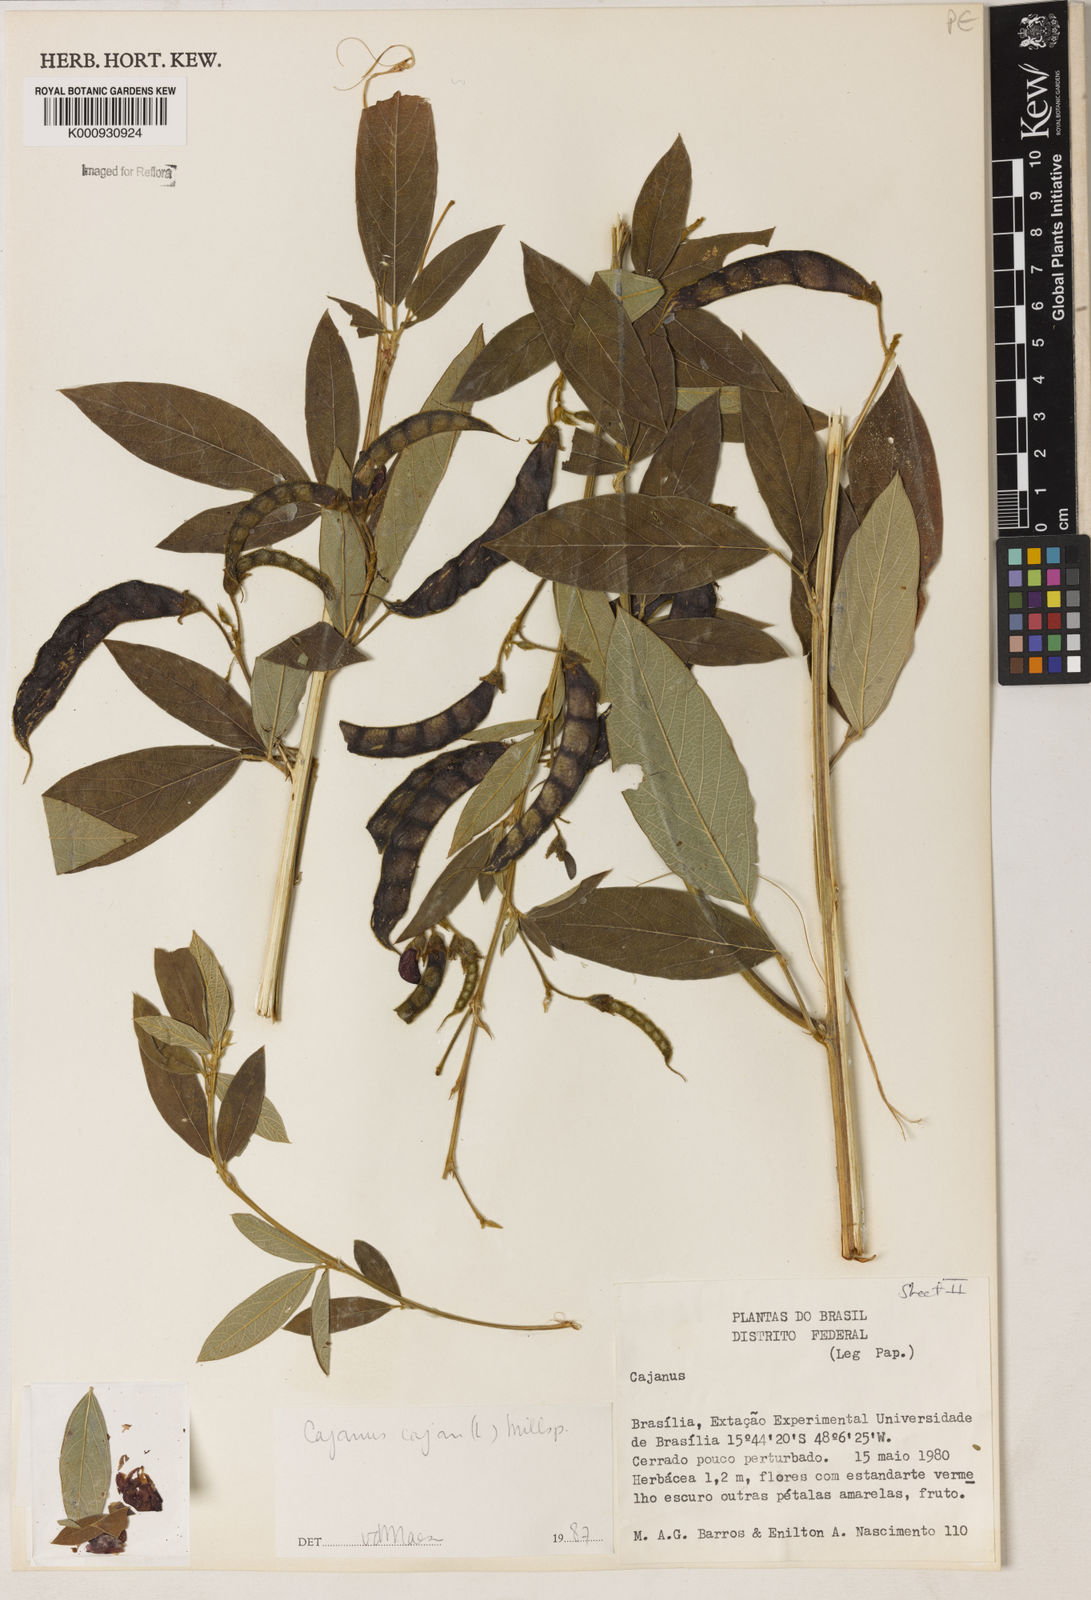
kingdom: Plantae
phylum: Tracheophyta
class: Magnoliopsida
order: Fabales
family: Fabaceae
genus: Cajanus
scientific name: Cajanus
